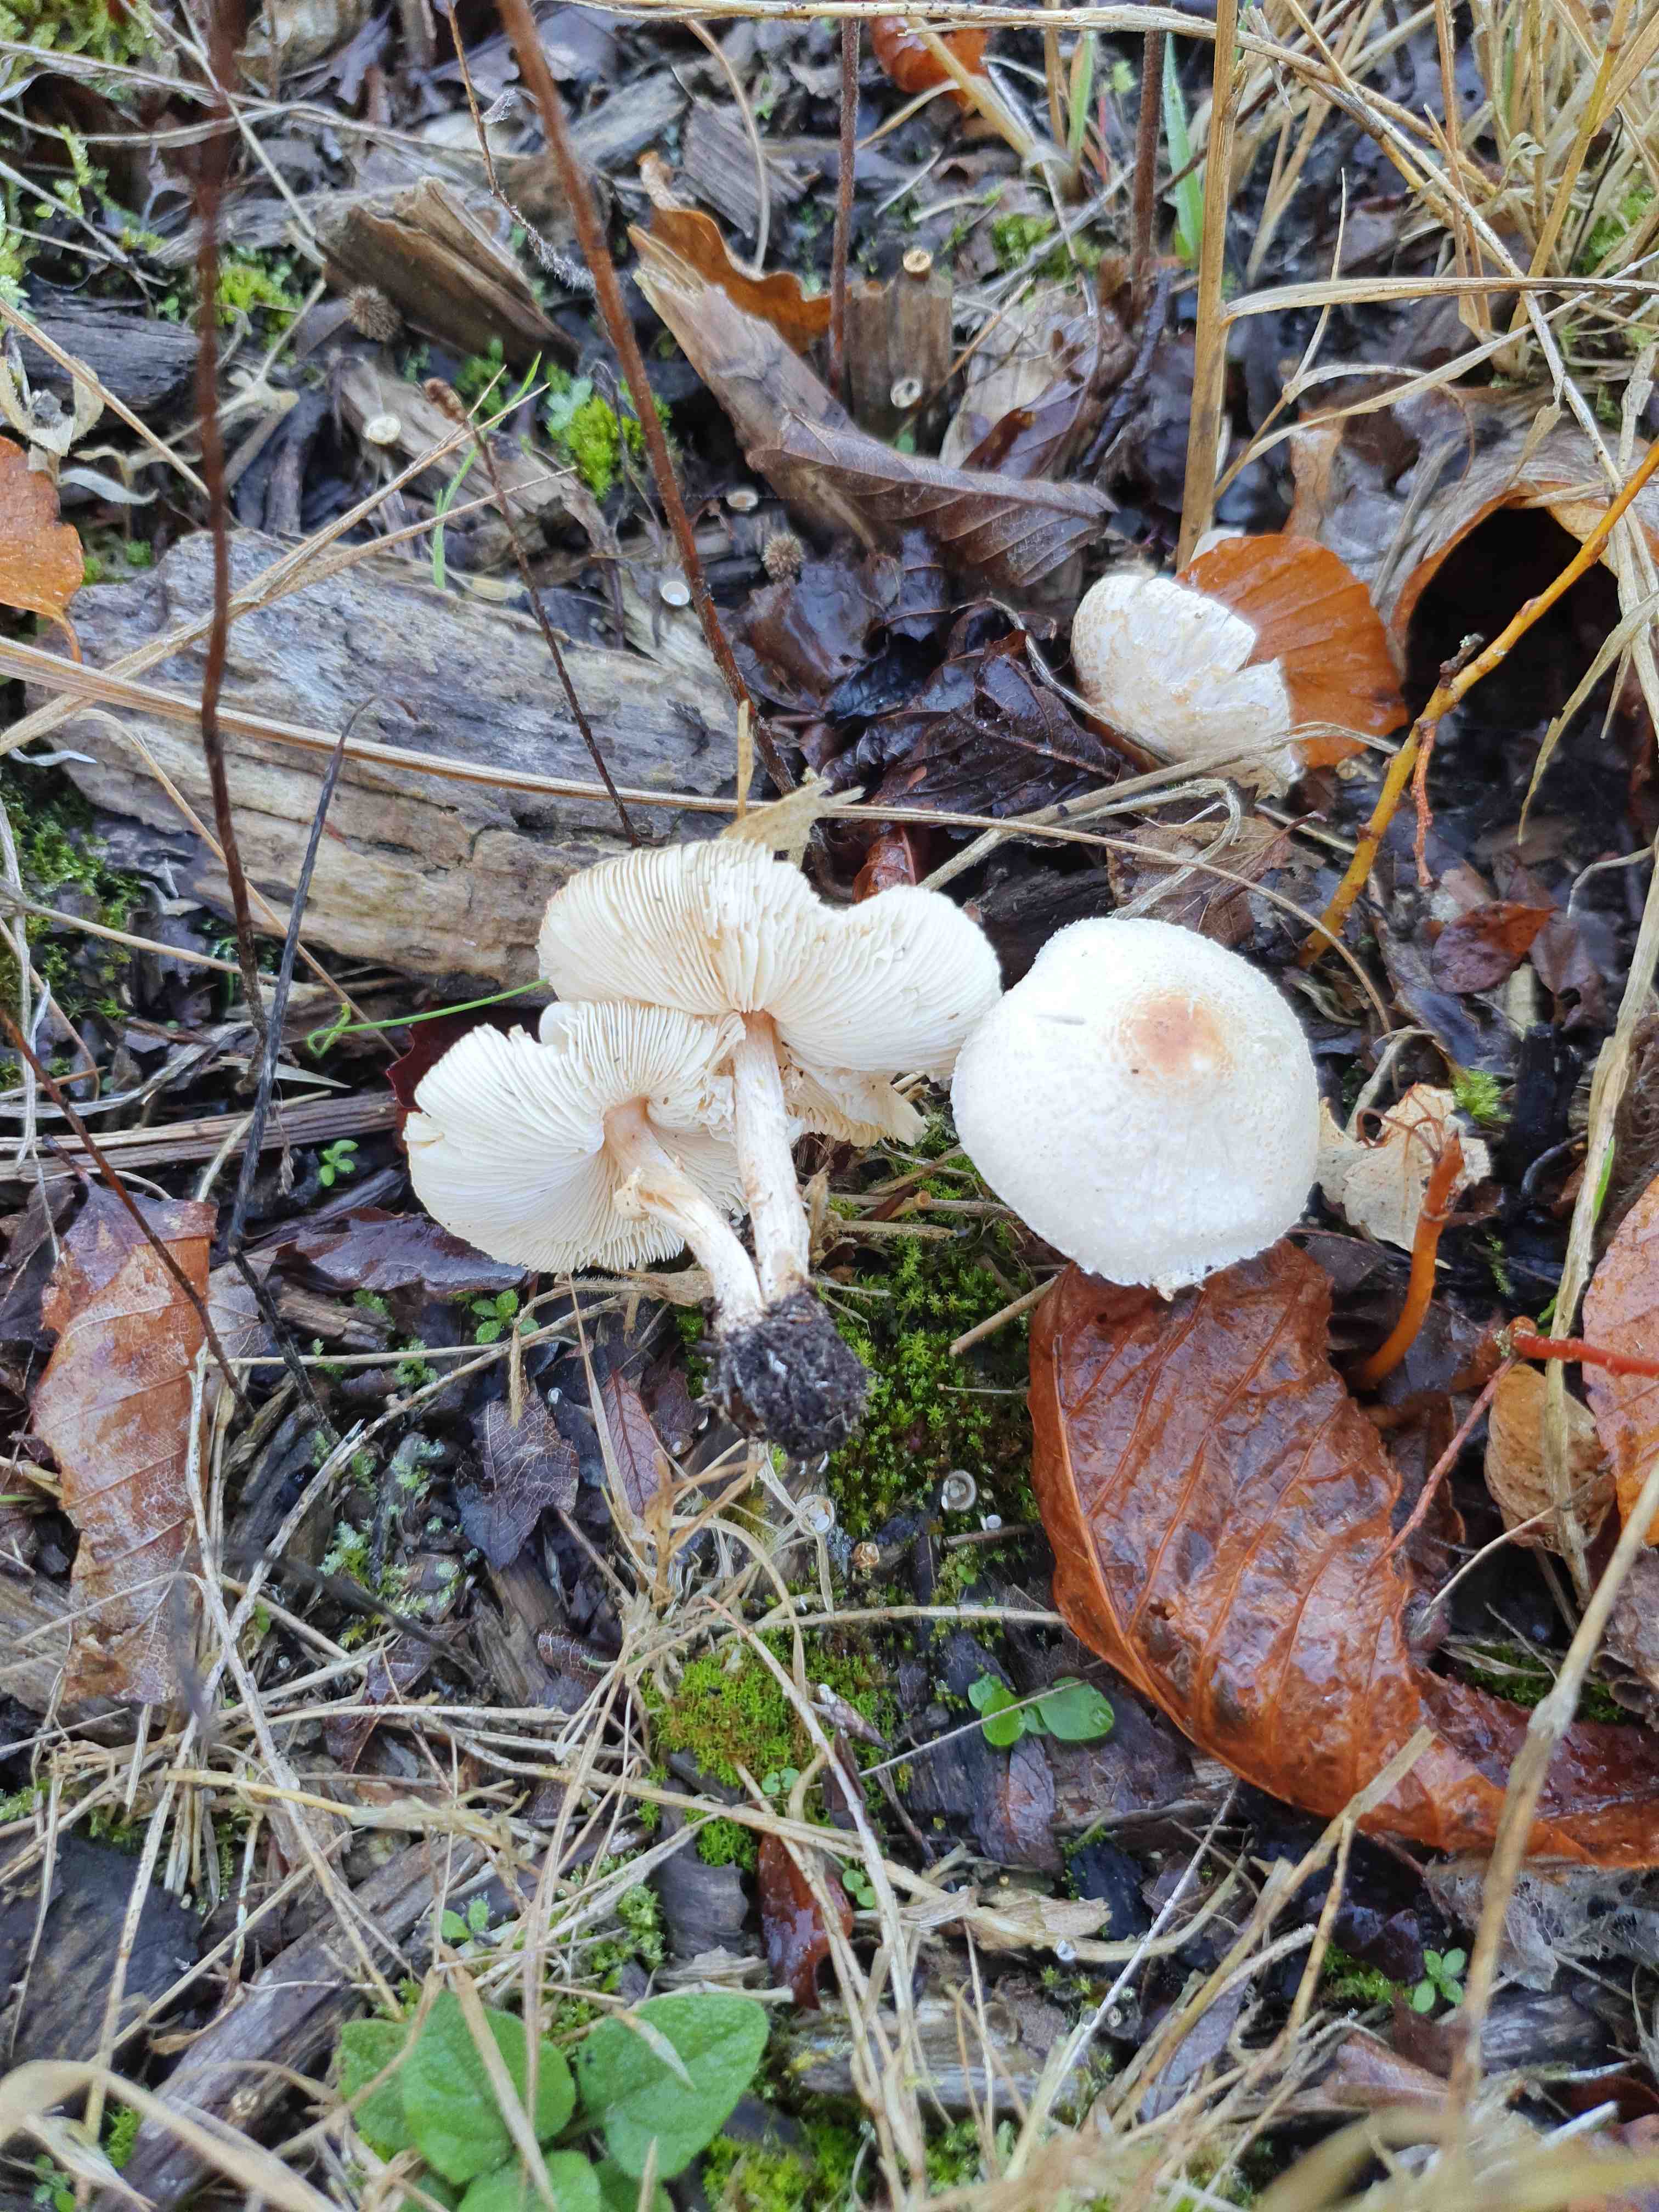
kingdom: Fungi
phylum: Basidiomycota
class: Agaricomycetes
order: Agaricales
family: Agaricaceae
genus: Lepiota
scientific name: Lepiota cristata
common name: stinkende parasolhat
